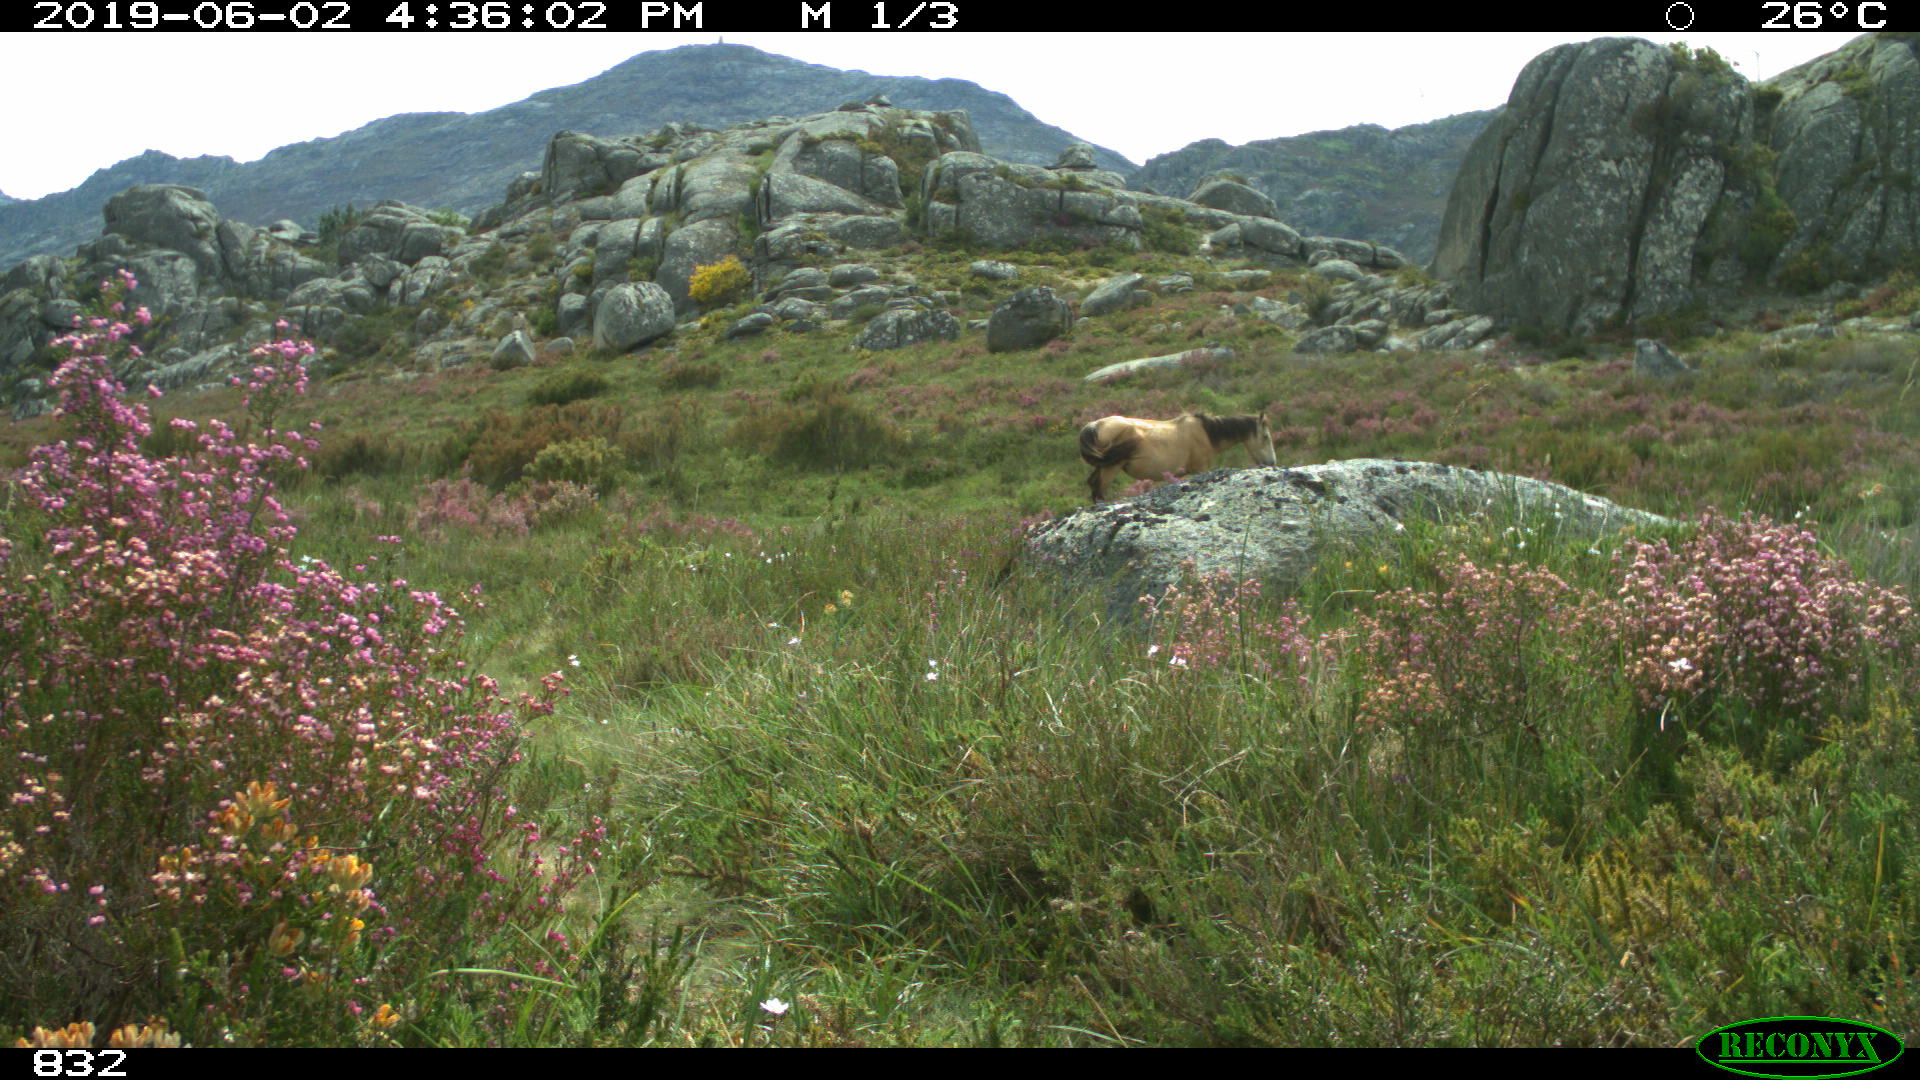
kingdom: Animalia
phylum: Chordata
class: Mammalia
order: Perissodactyla
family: Equidae
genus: Equus
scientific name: Equus caballus
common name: Horse
